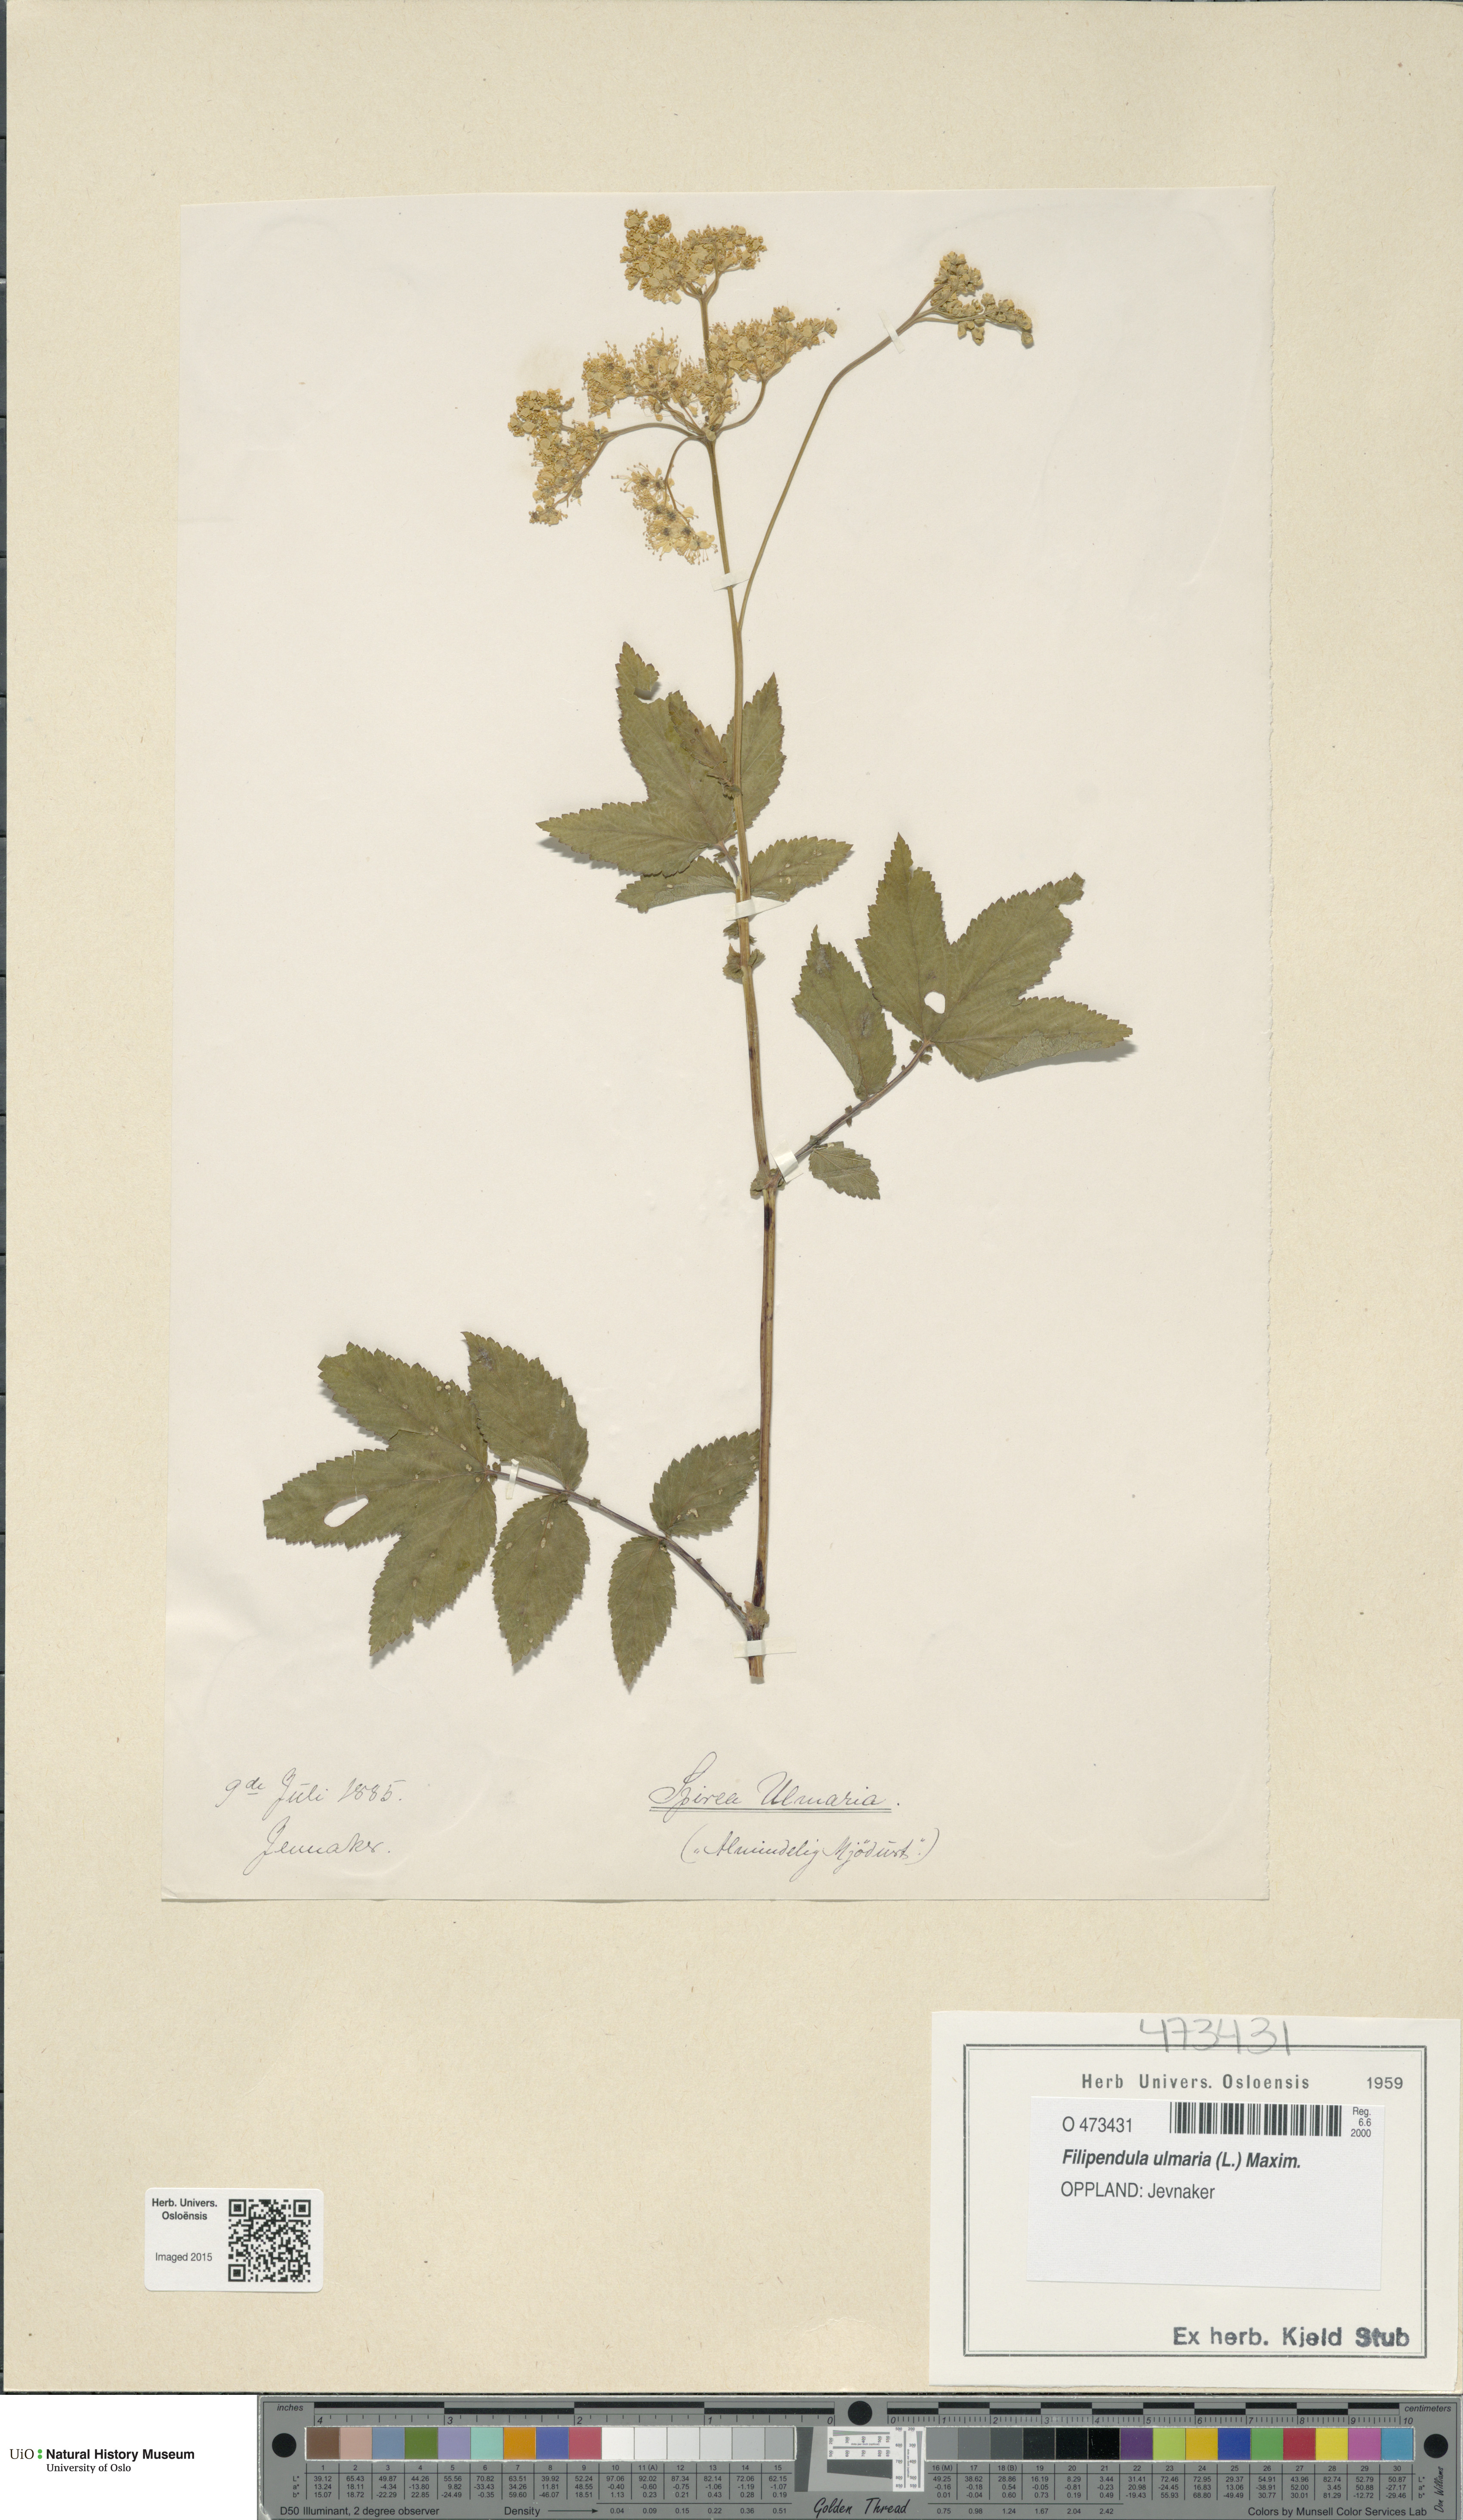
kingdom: Plantae
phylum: Tracheophyta
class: Magnoliopsida
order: Rosales
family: Rosaceae
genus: Filipendula
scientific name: Filipendula ulmaria
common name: Meadowsweet
